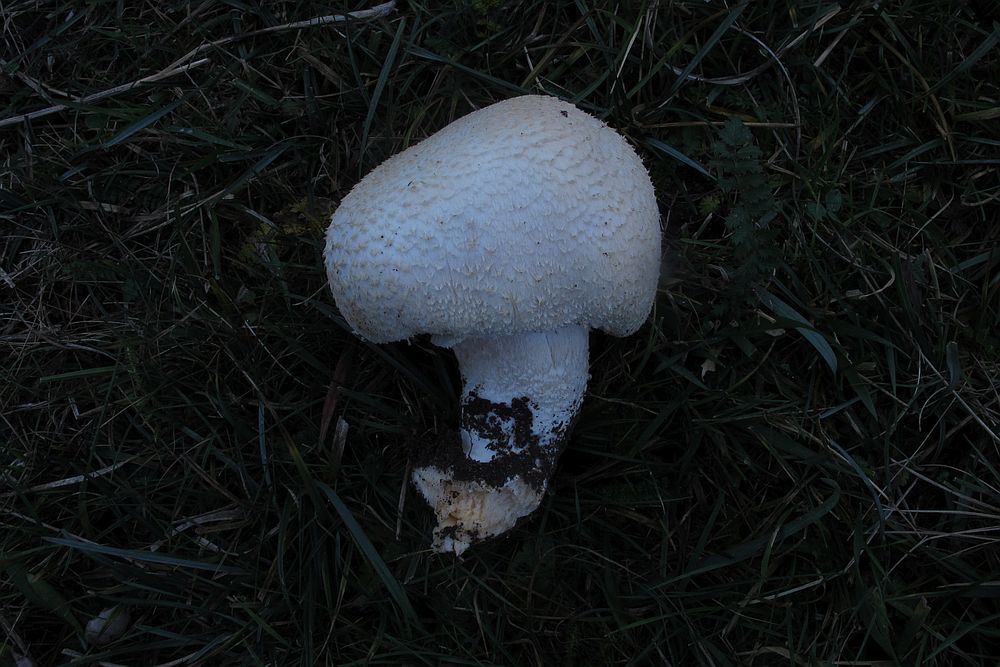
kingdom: Fungi
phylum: Basidiomycota
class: Agaricomycetes
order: Agaricales
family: Agaricaceae
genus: Agaricus
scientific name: Agaricus crocodilinus
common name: landsby-champignon
